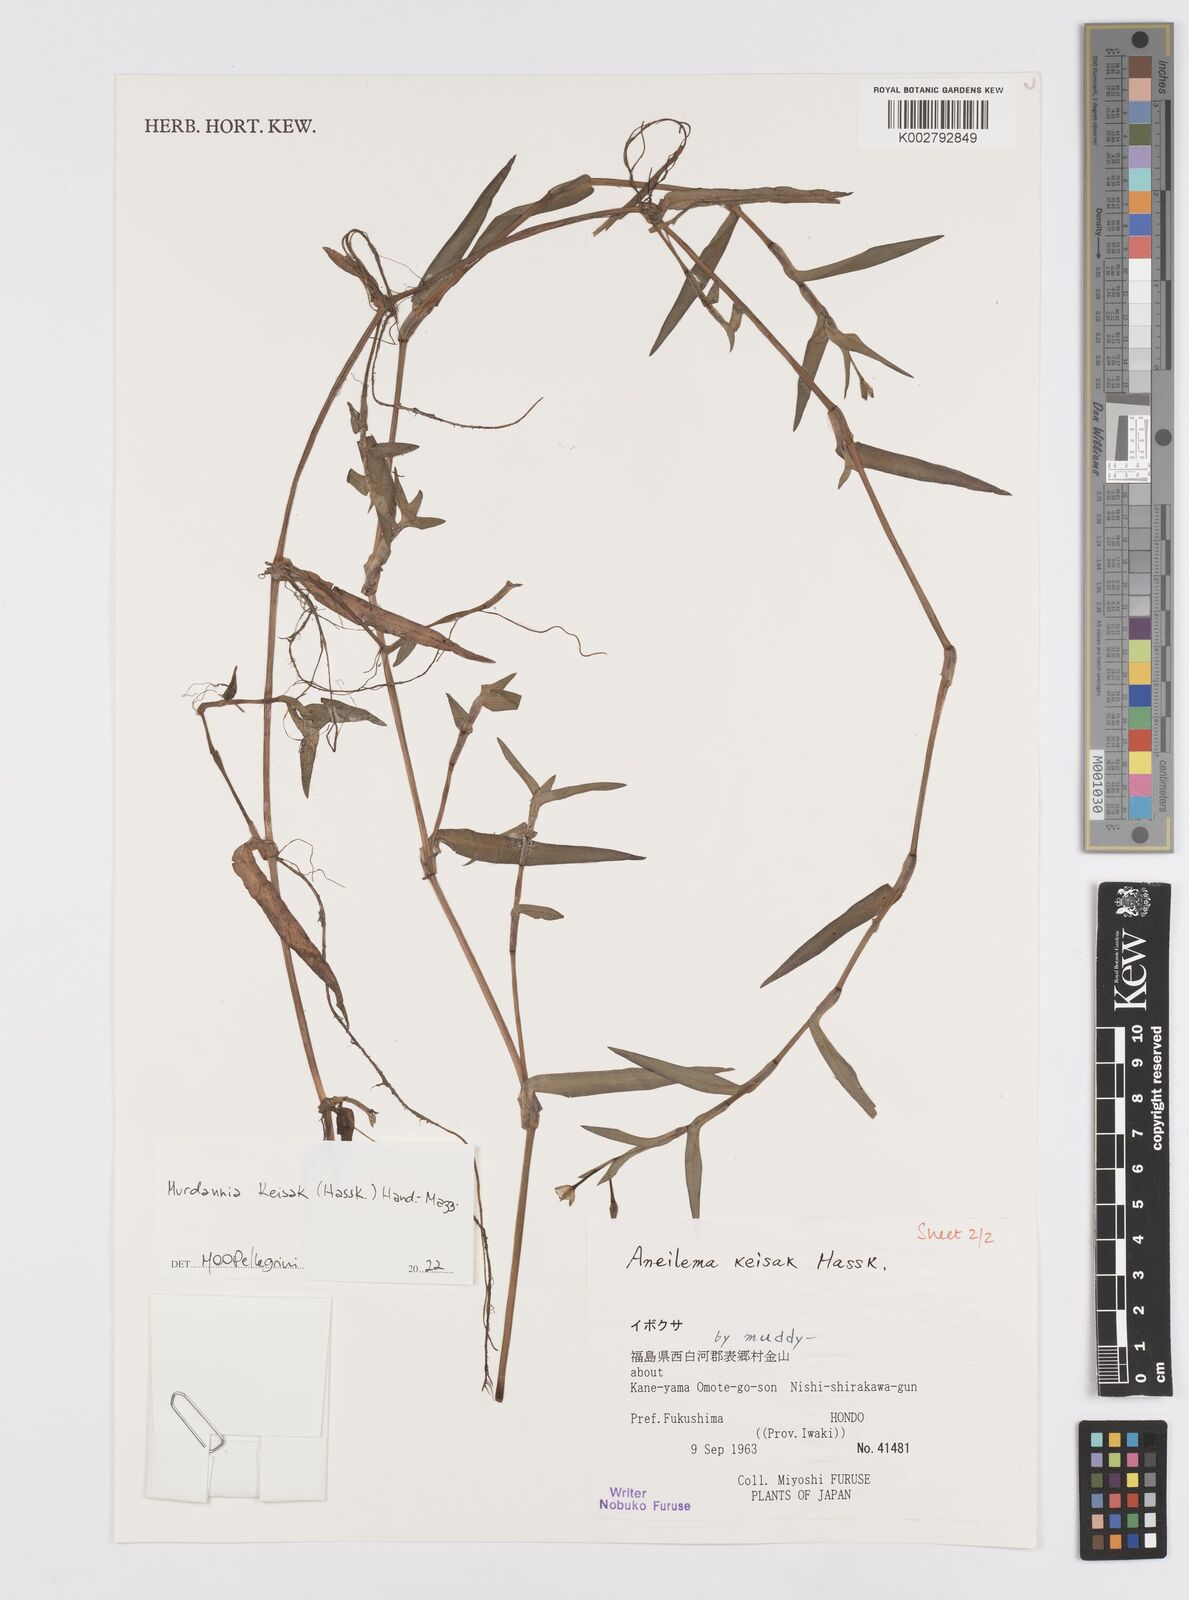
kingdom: Plantae
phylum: Tracheophyta
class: Liliopsida
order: Commelinales
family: Commelinaceae
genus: Murdannia
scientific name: Murdannia keisak
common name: Wartremoving herb
